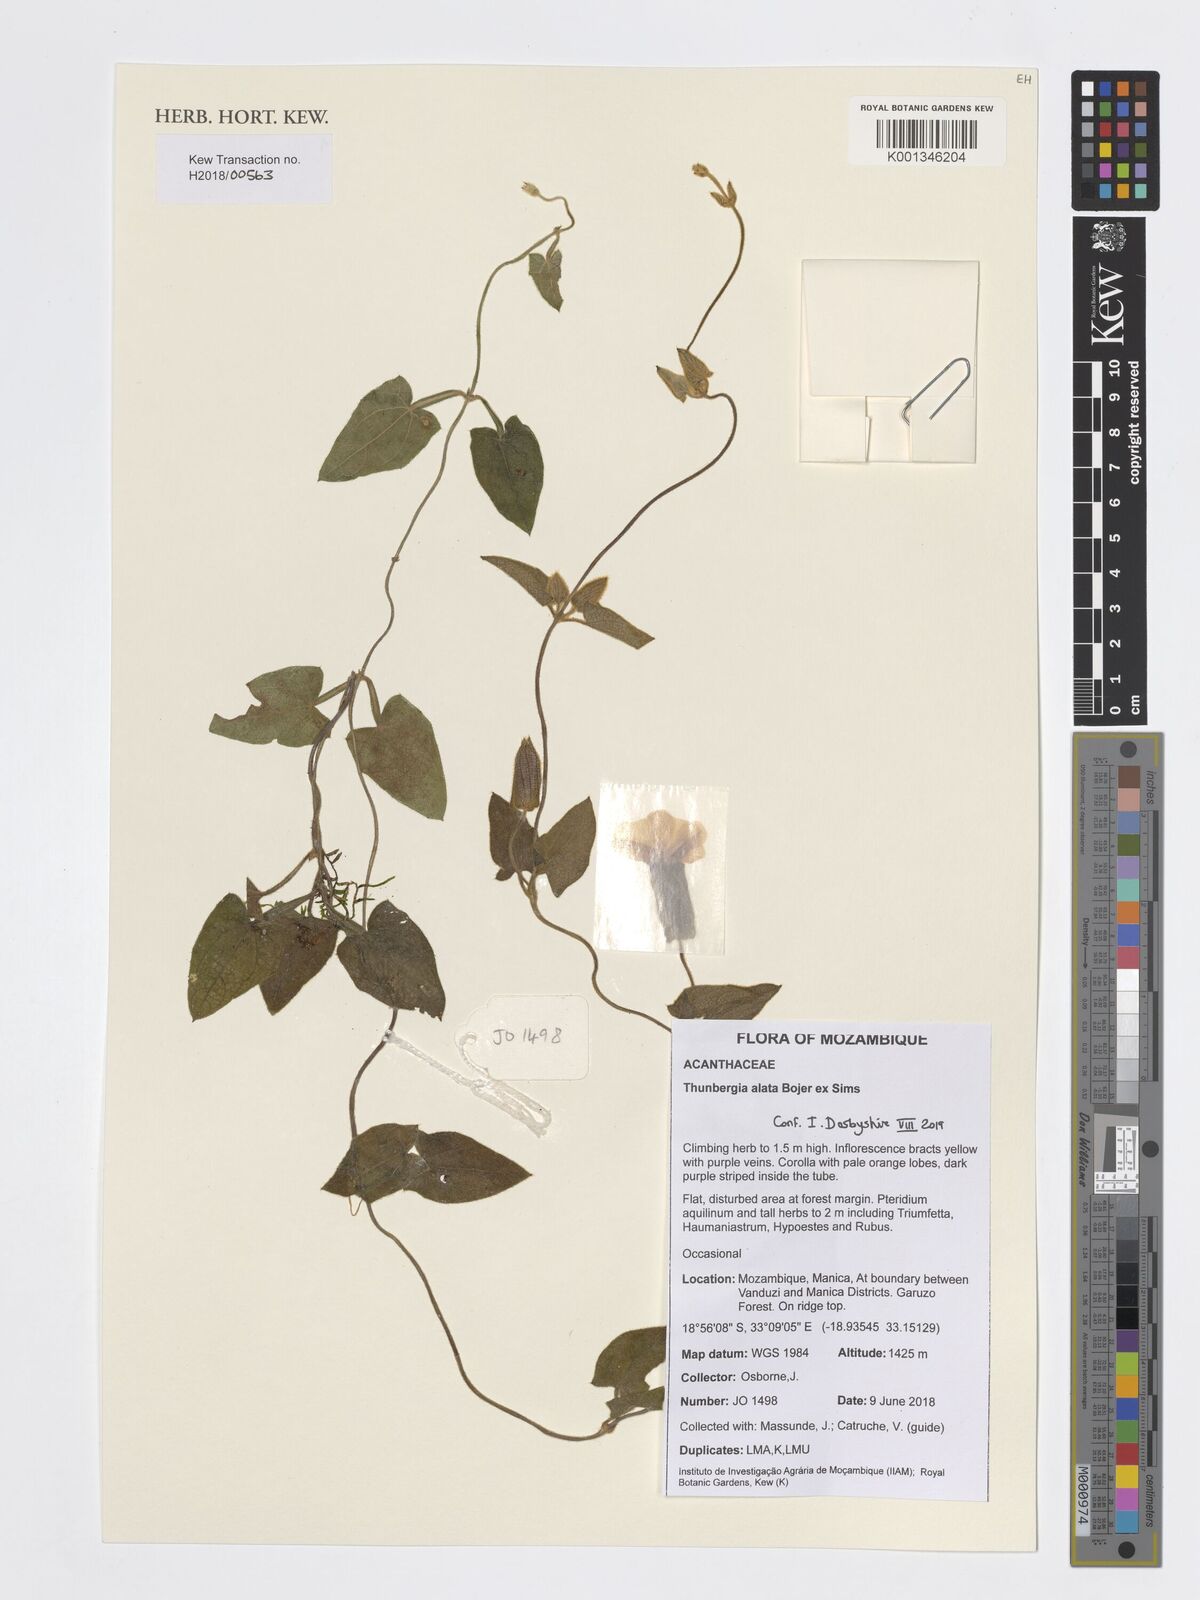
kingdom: Plantae
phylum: Tracheophyta
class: Magnoliopsida
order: Lamiales
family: Acanthaceae
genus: Thunbergia
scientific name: Thunbergia alata
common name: Blackeyed susan vine
